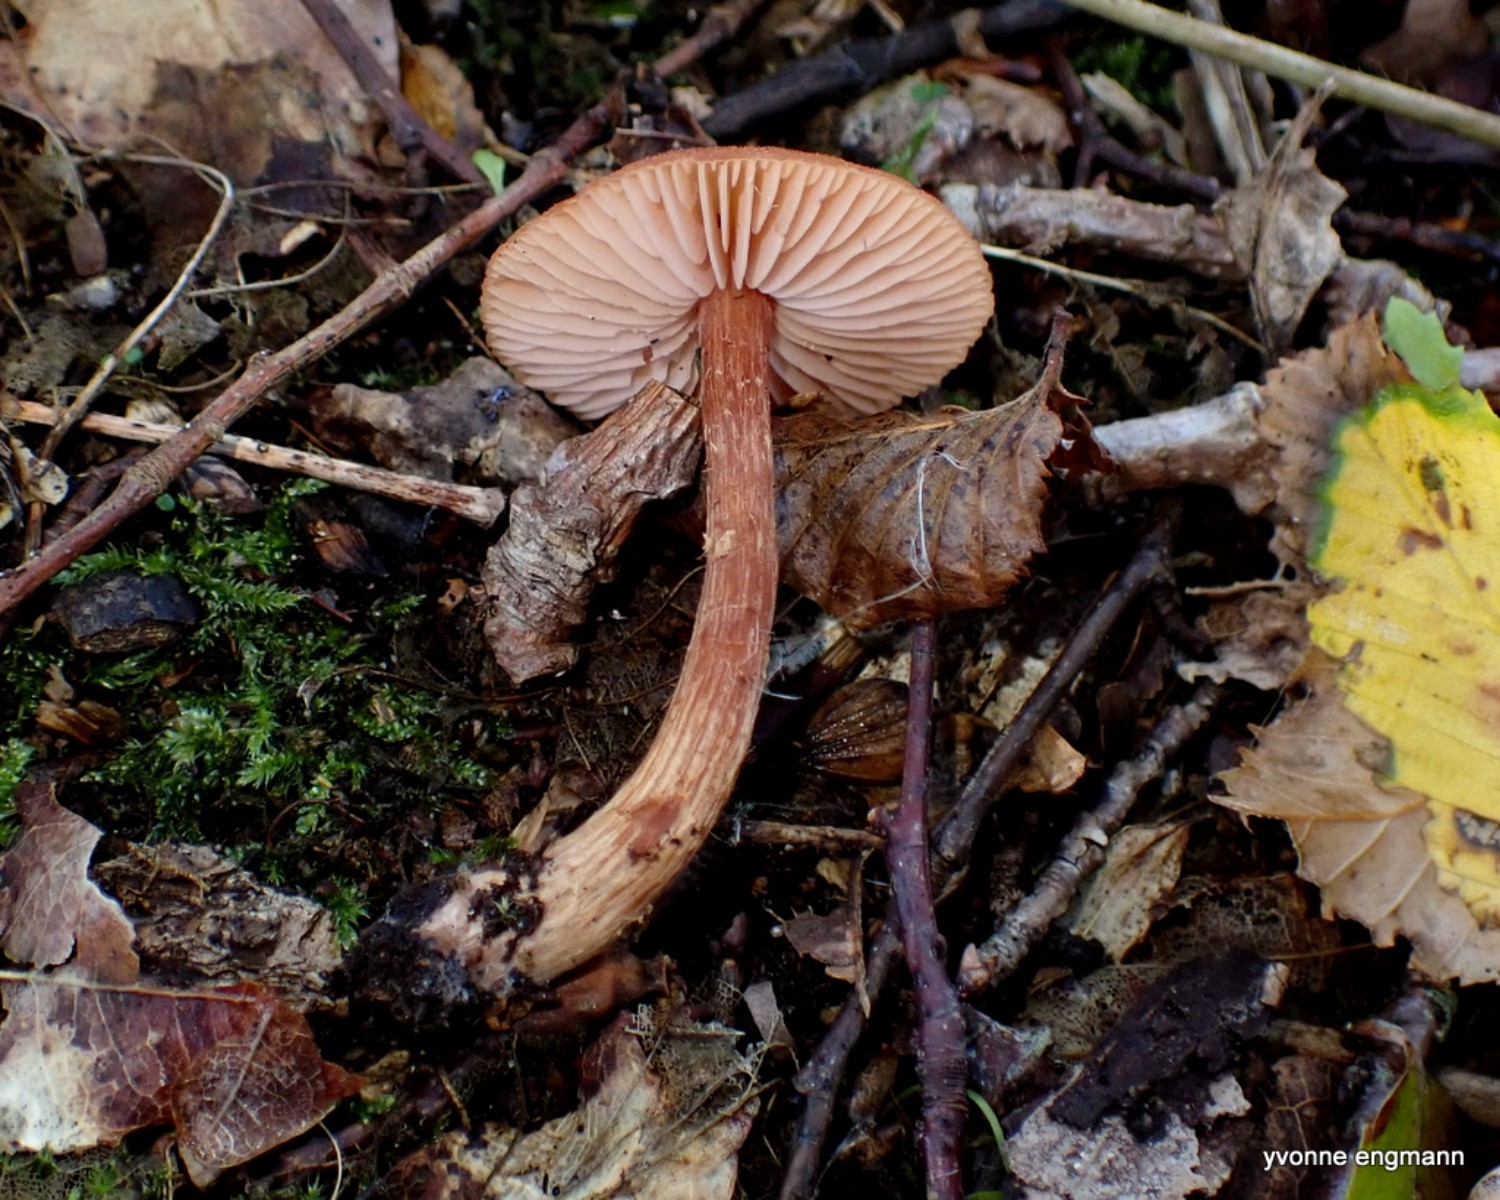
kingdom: Fungi
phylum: Basidiomycota
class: Agaricomycetes
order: Agaricales
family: Hydnangiaceae
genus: Laccaria
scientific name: Laccaria proxima
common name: stor ametysthat
